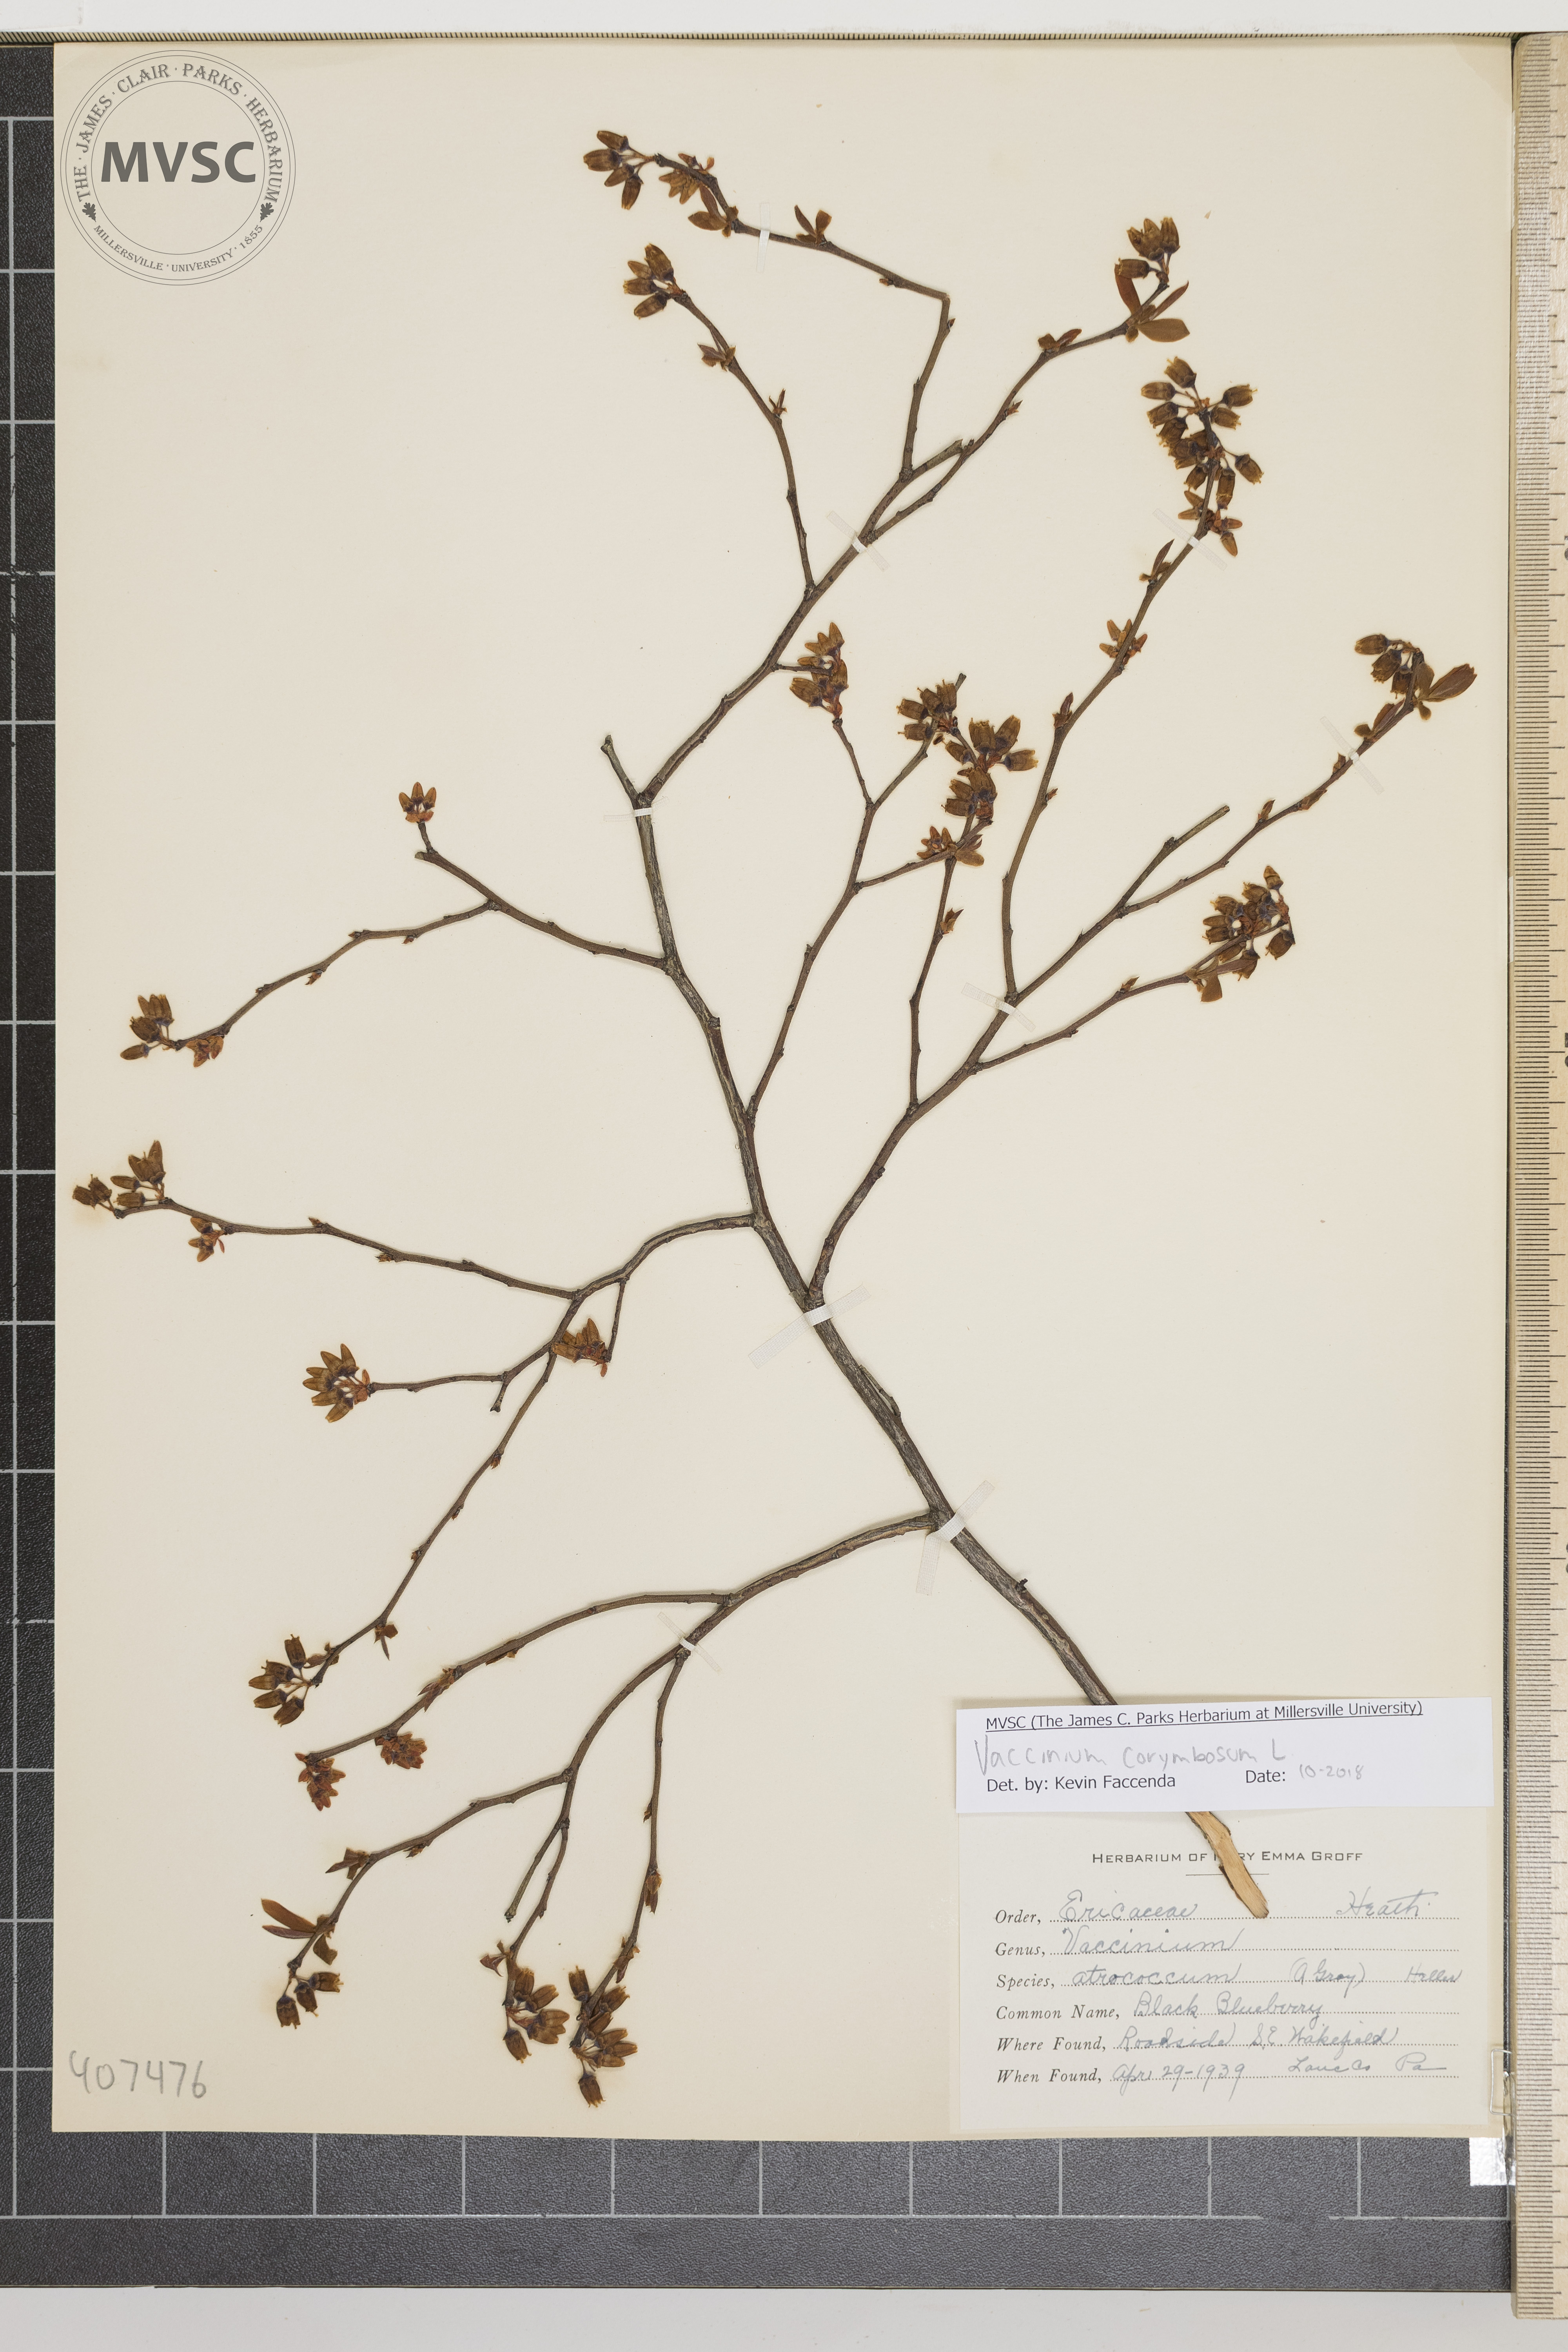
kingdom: Plantae
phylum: Tracheophyta
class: Magnoliopsida
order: Ericales
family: Ericaceae
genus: Vaccinium
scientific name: Vaccinium corymbosum
